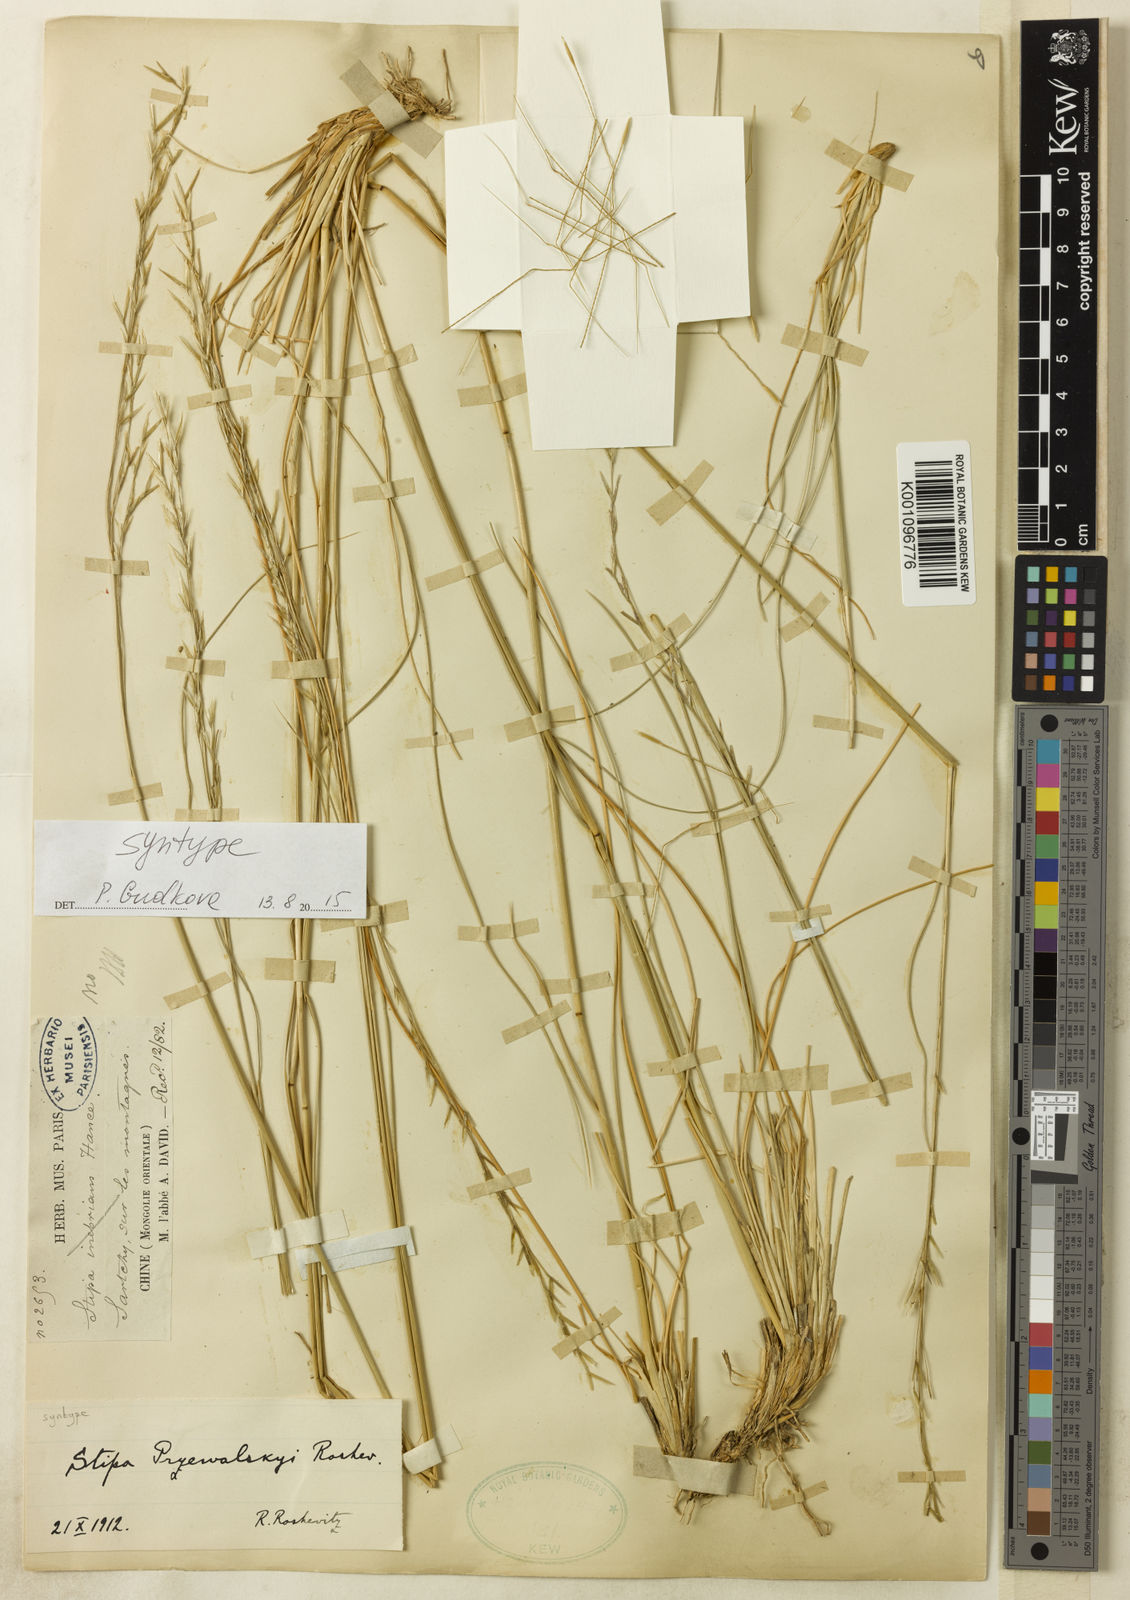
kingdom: Plantae
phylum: Tracheophyta
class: Liliopsida
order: Poales
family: Poaceae
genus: Stipa
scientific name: Stipa przewalskyi
